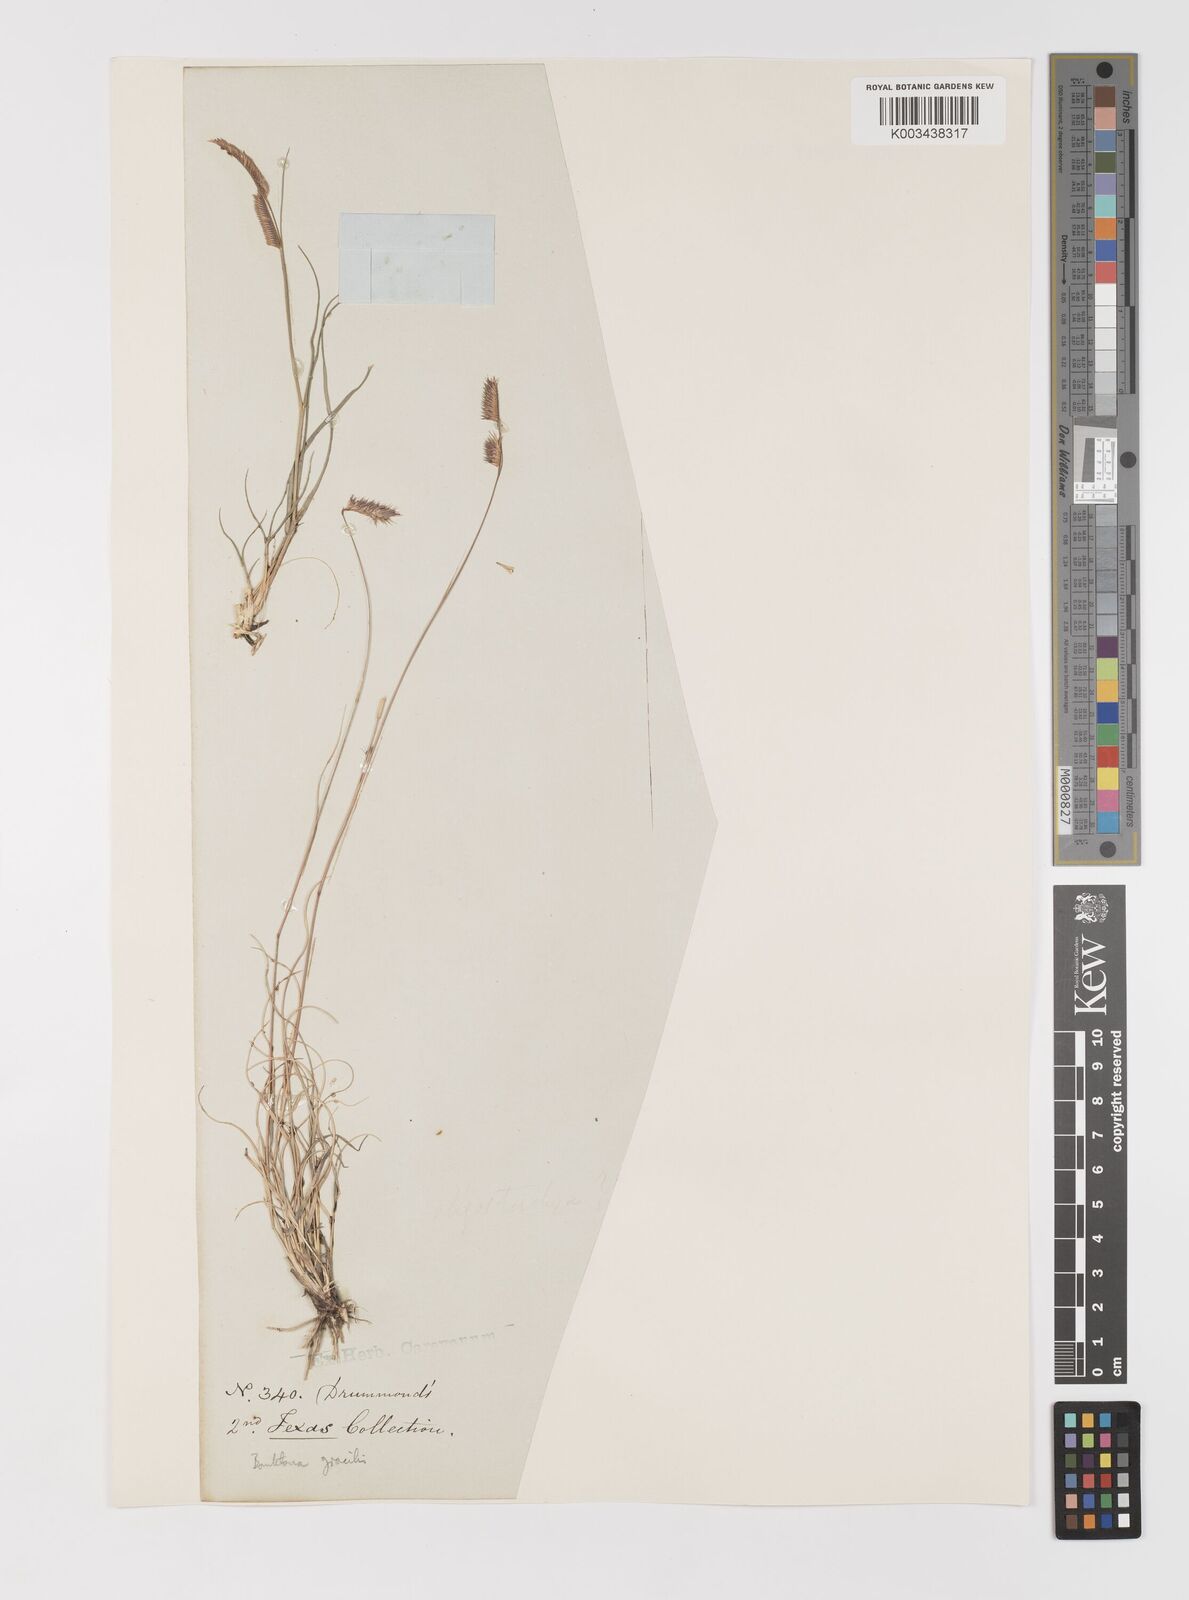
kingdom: Plantae
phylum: Tracheophyta
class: Liliopsida
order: Poales
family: Poaceae
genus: Bouteloua
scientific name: Bouteloua
